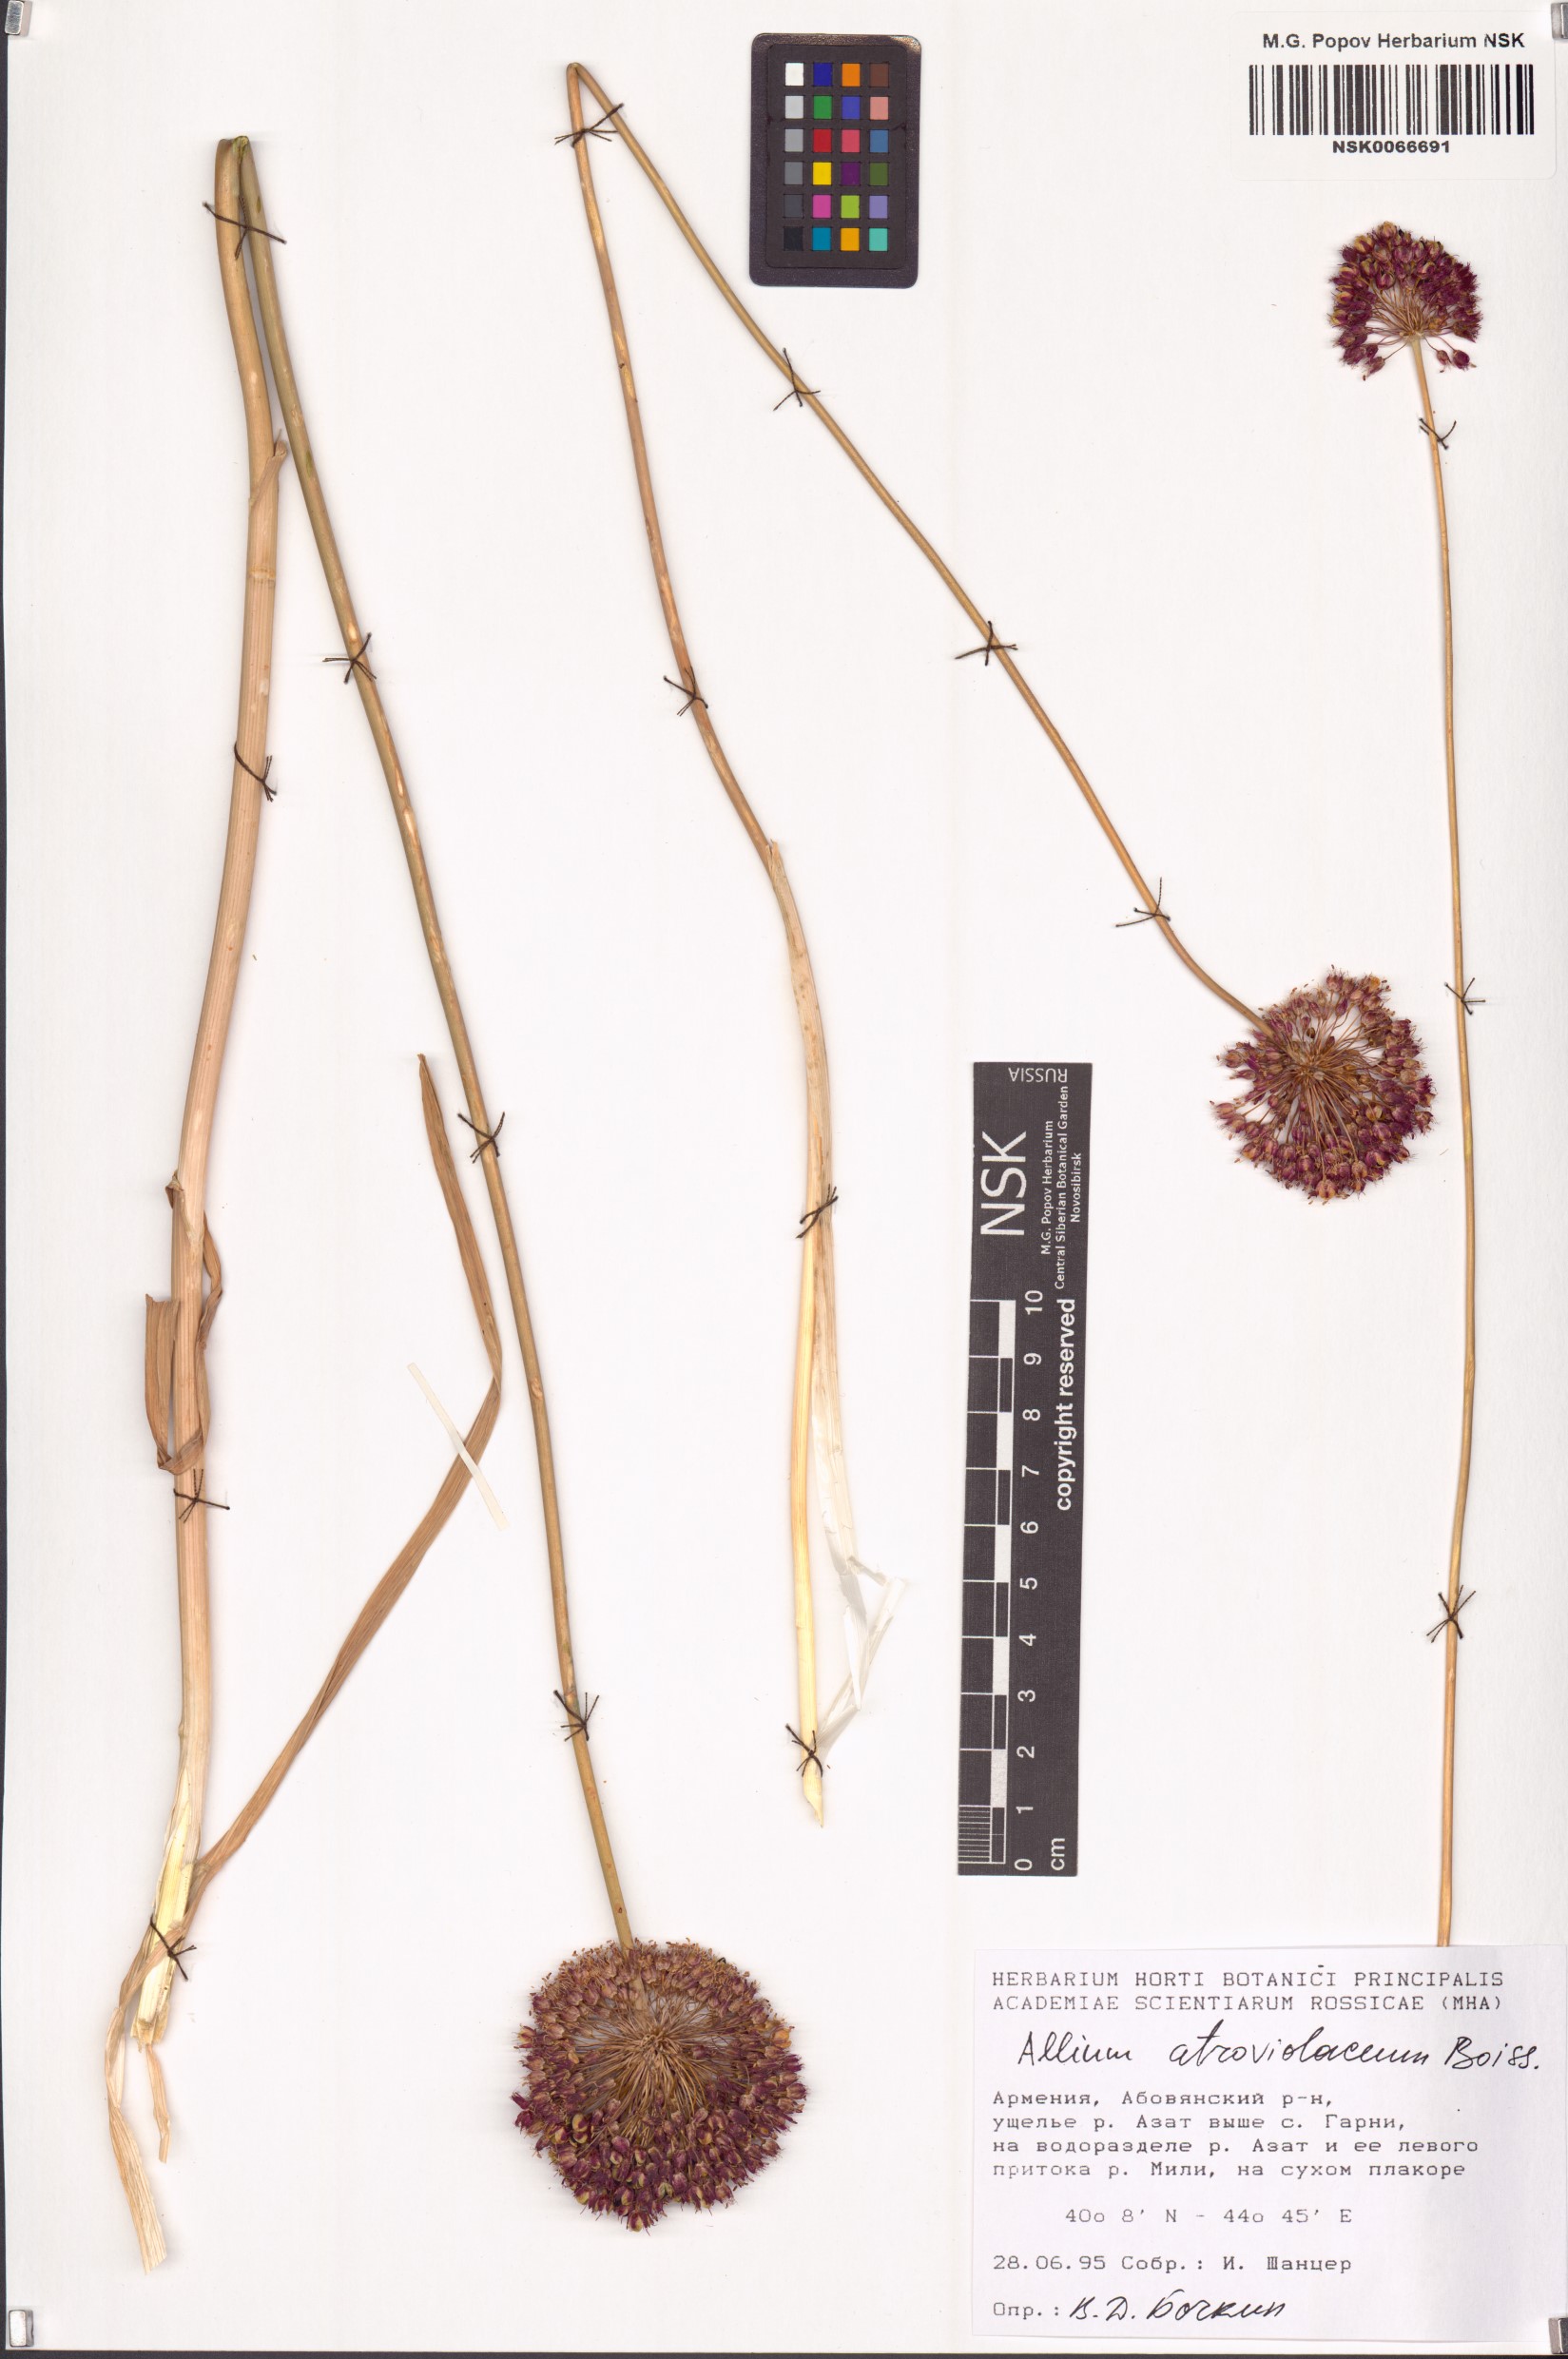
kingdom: Plantae
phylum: Tracheophyta
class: Liliopsida
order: Asparagales
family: Amaryllidaceae
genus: Allium
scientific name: Allium atroviolaceum
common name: Broadleaf wild leek
